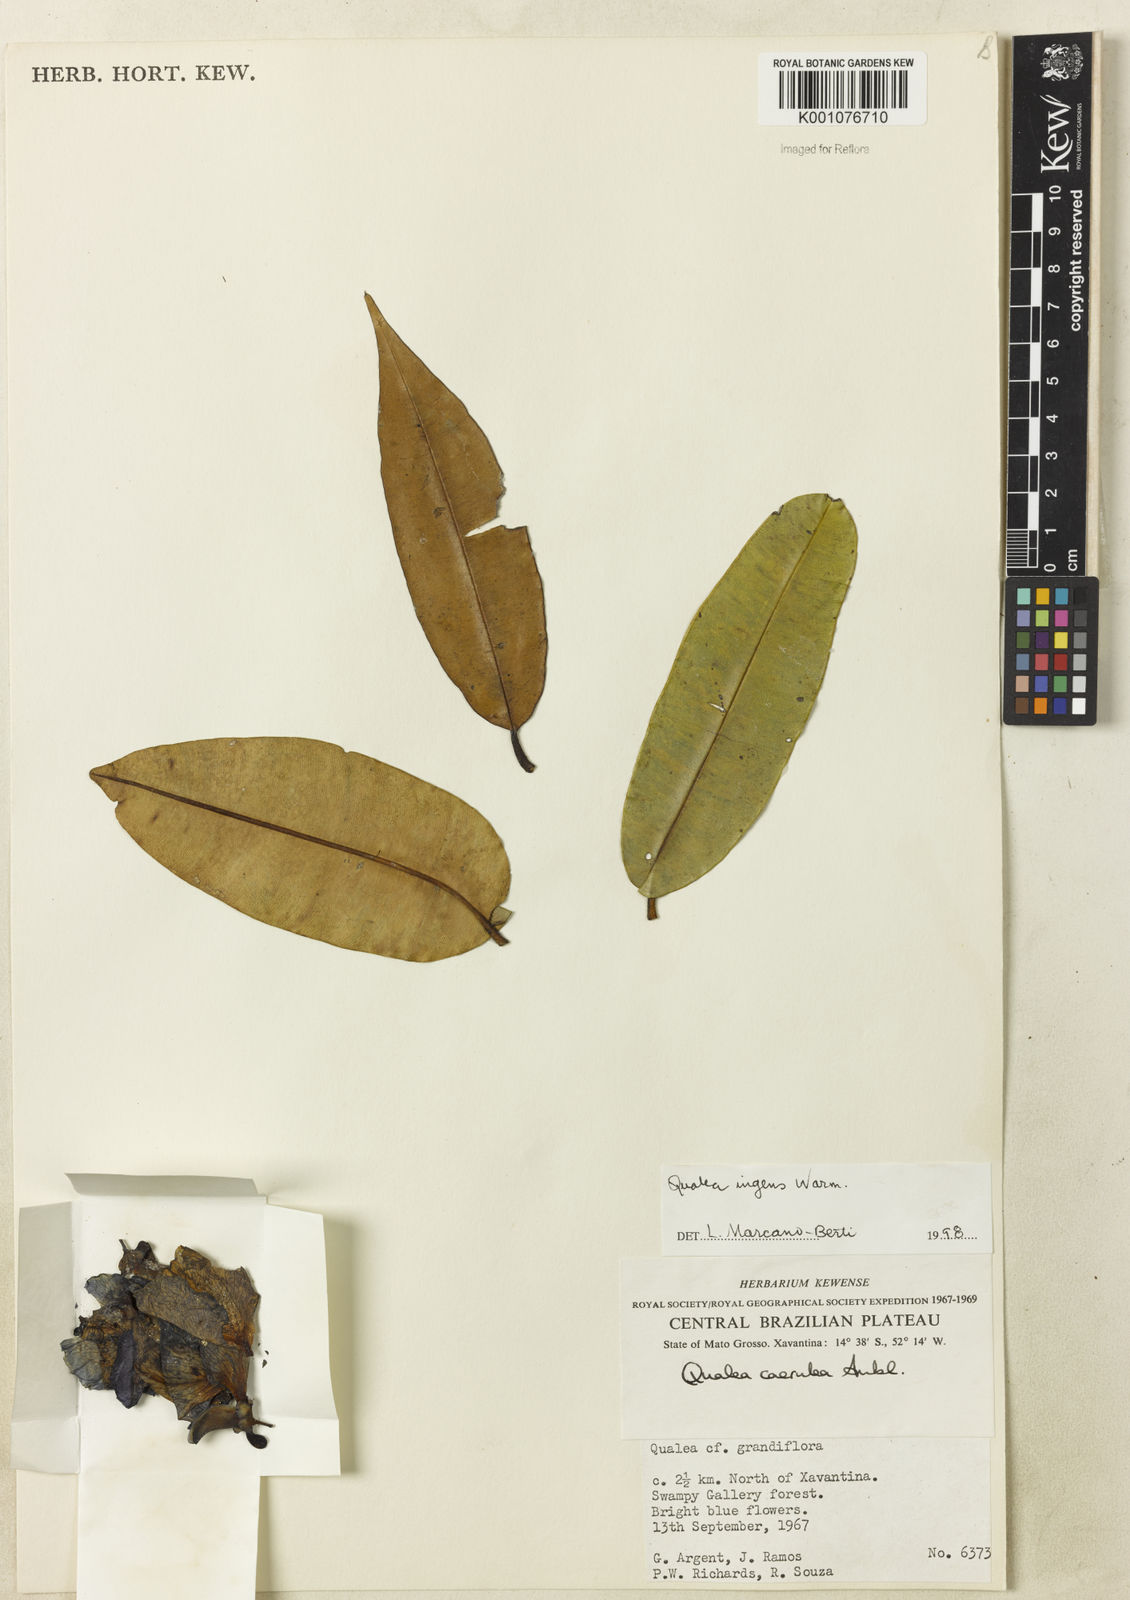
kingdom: Plantae
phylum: Tracheophyta
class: Magnoliopsida
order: Myrtales
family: Vochysiaceae
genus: Qualea
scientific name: Qualea ingens
